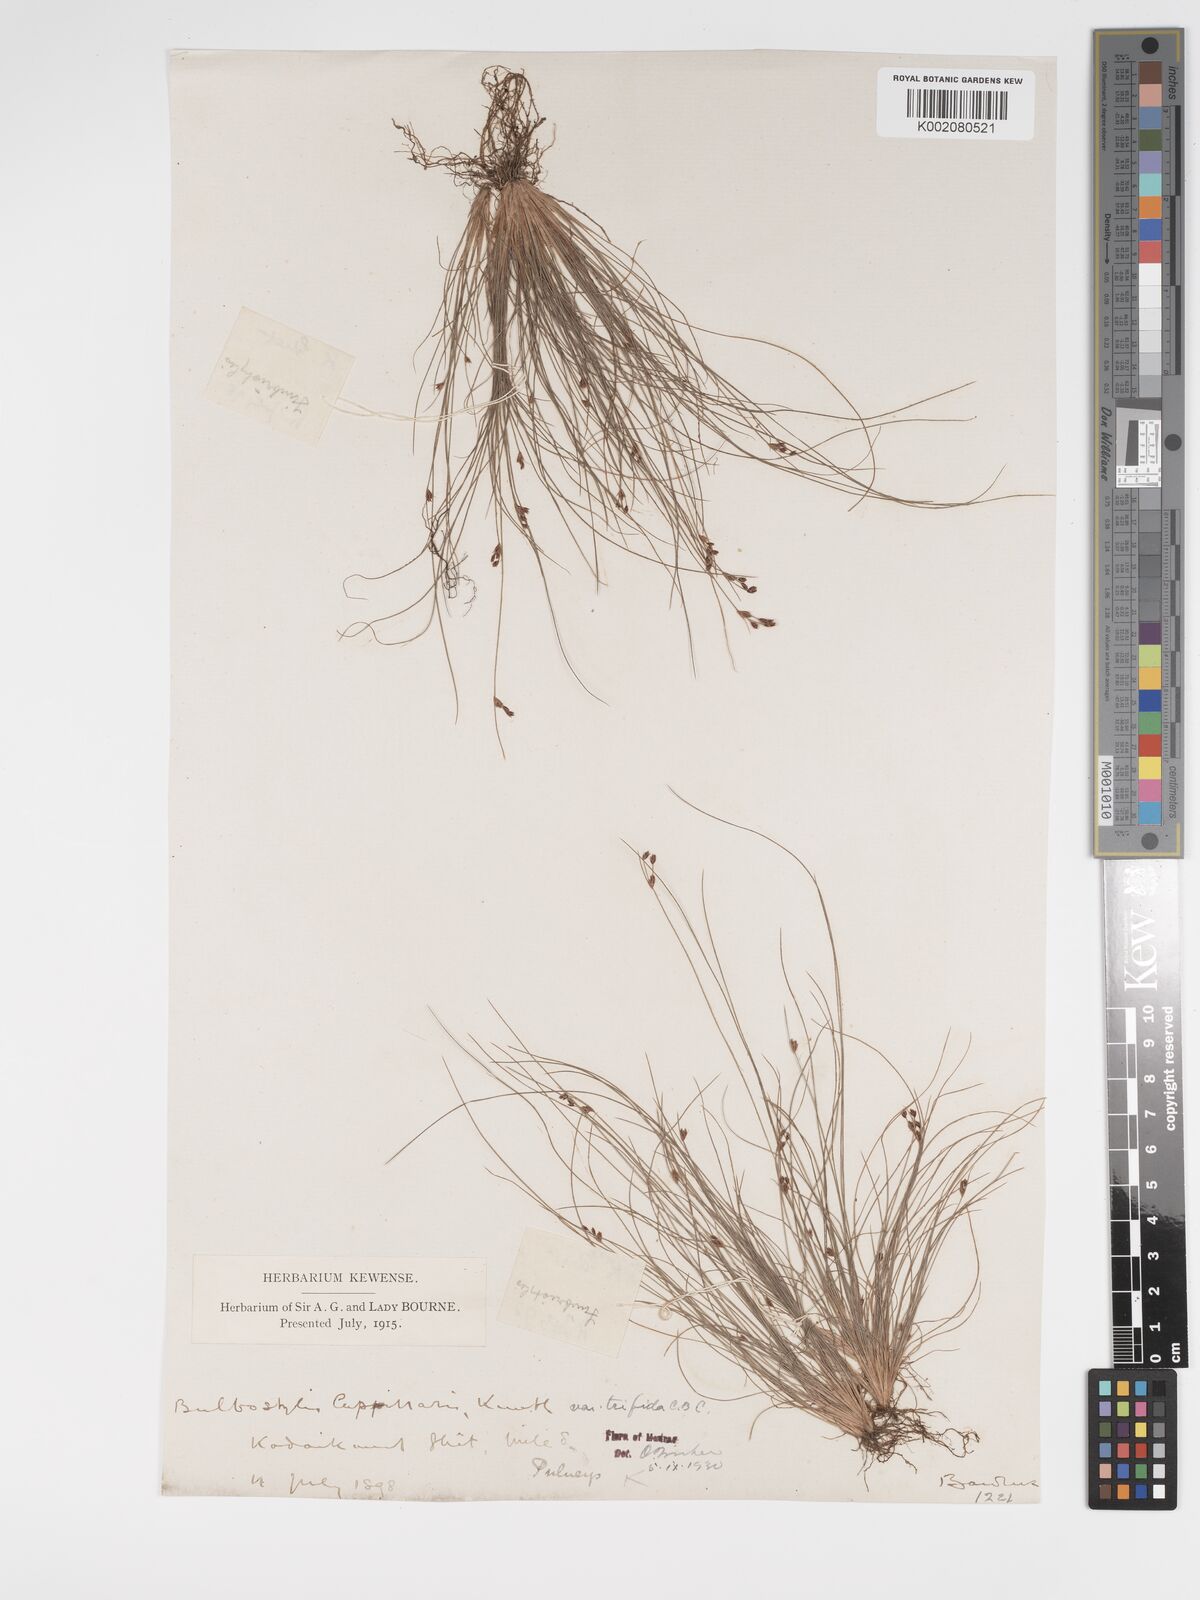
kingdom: Plantae
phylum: Tracheophyta
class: Liliopsida
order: Poales
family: Cyperaceae
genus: Bulbostylis
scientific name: Bulbostylis capillaris
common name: Densetuft hairsedge
